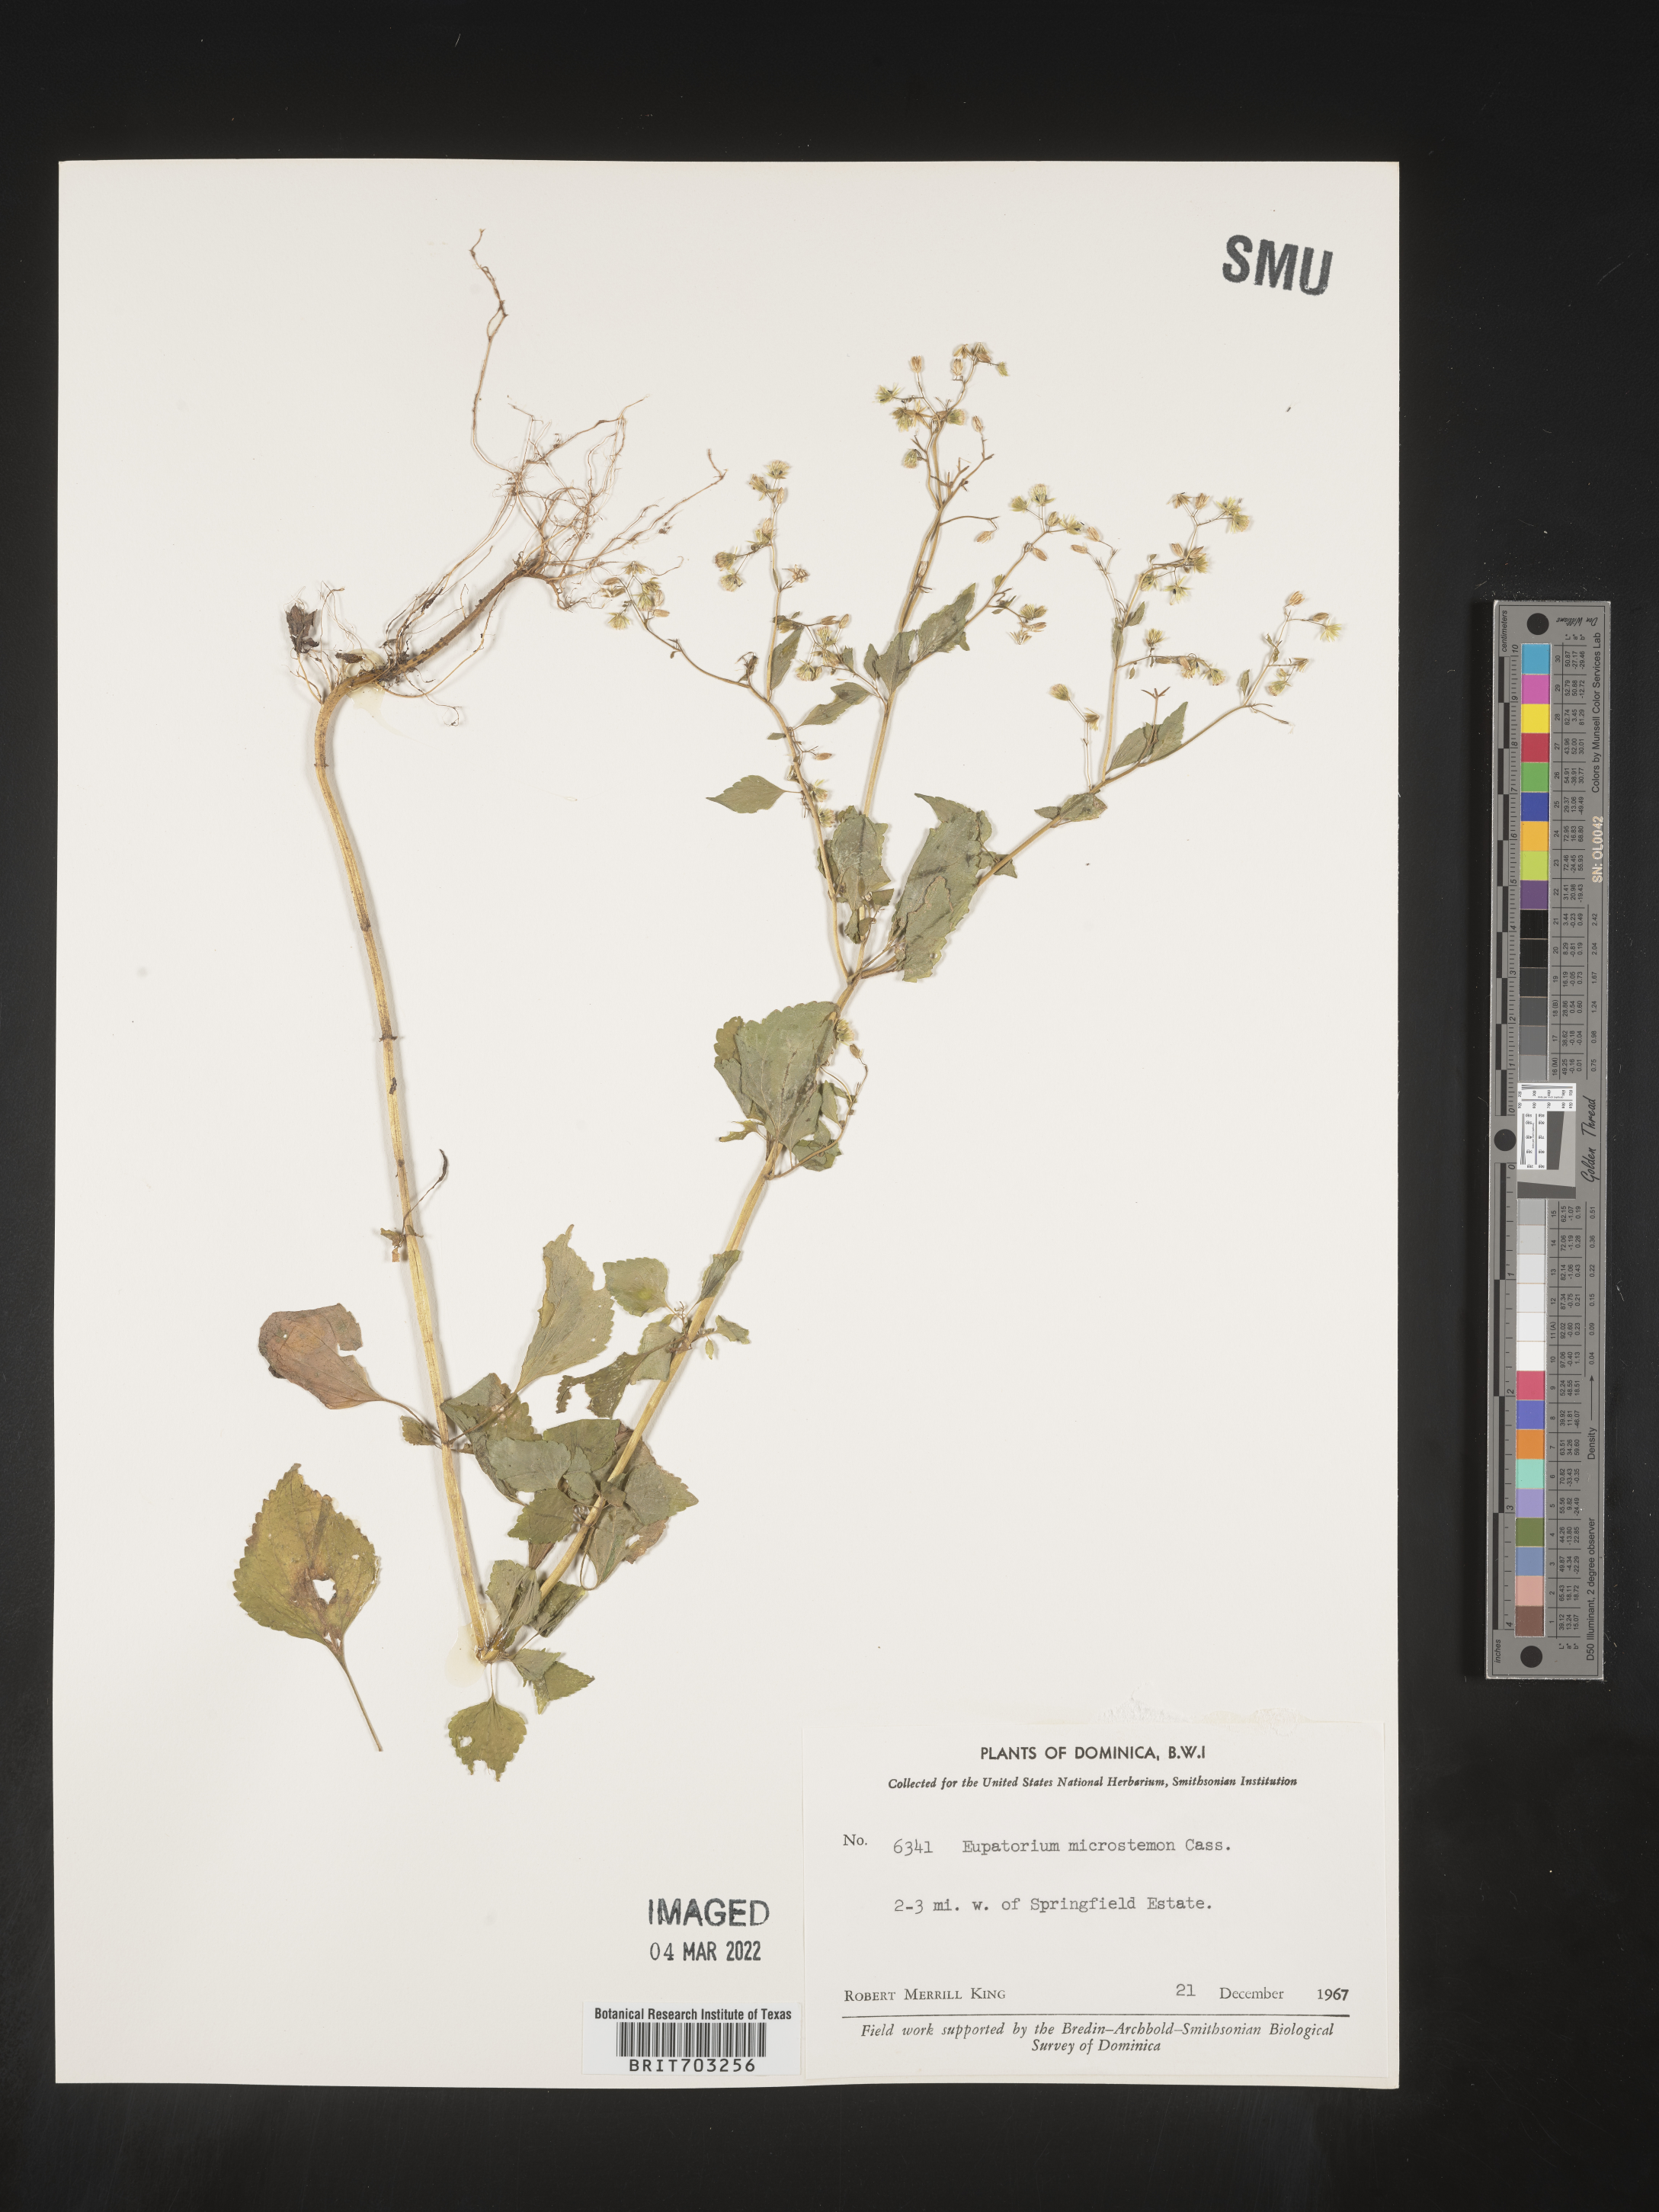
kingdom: Plantae
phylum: Tracheophyta
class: Magnoliopsida
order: Asterales
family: Asteraceae
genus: Eupatorium
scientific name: Eupatorium
